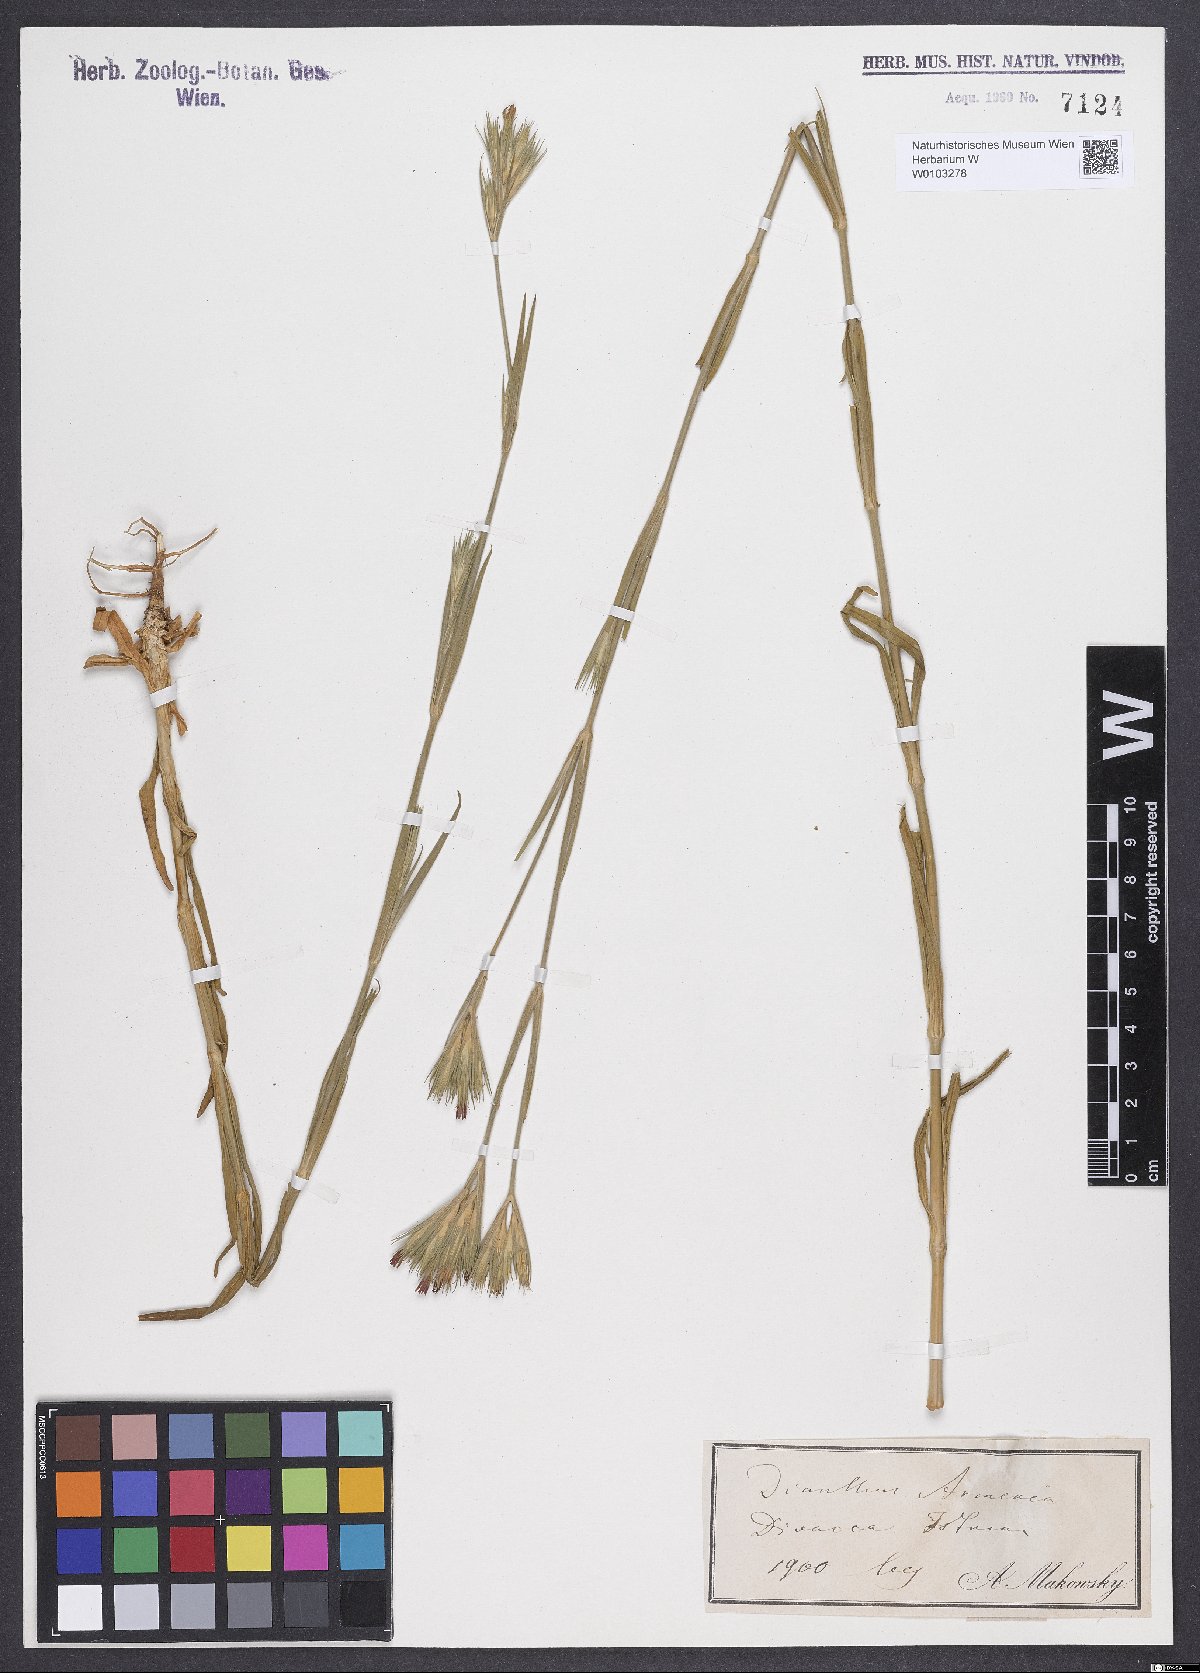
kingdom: Plantae
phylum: Tracheophyta
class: Magnoliopsida
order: Caryophyllales
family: Caryophyllaceae
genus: Dianthus
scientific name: Dianthus armeria
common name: Deptford pink
